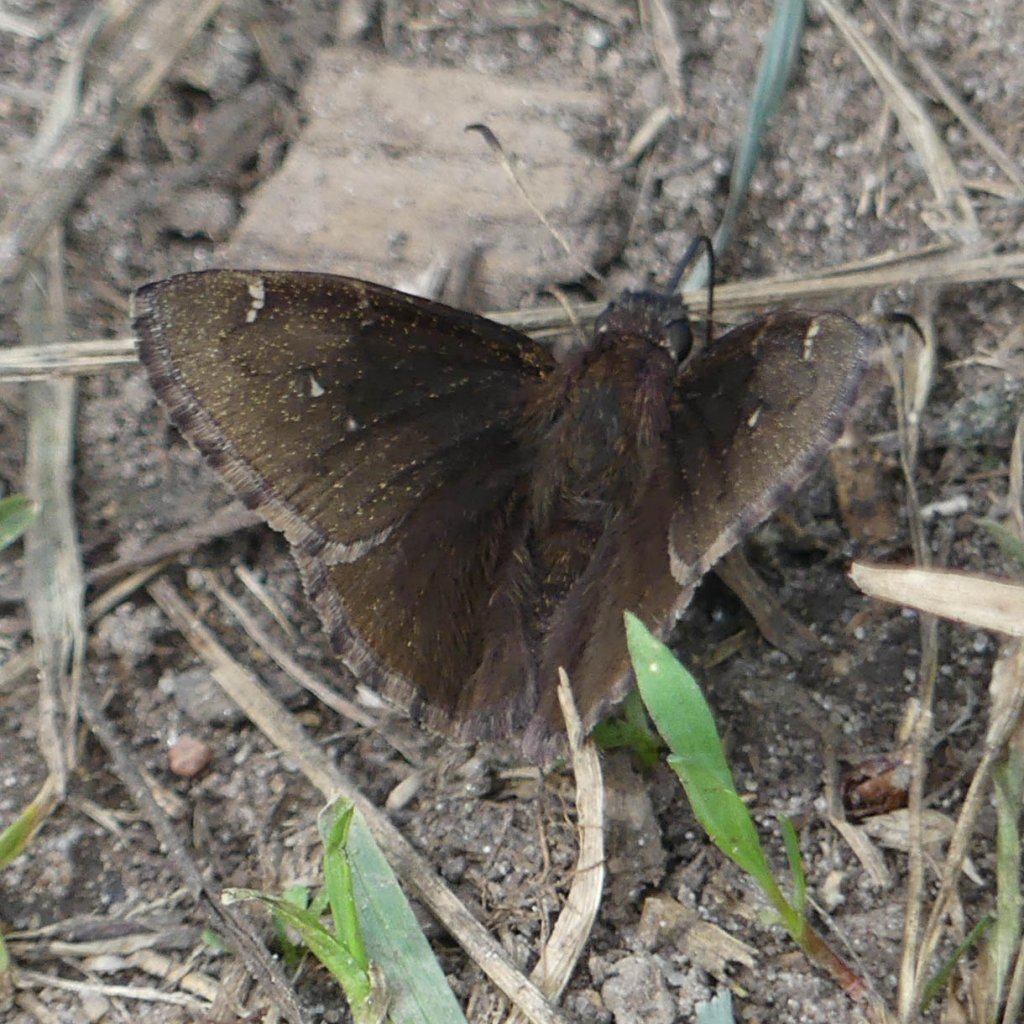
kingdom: Animalia
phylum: Arthropoda
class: Insecta
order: Lepidoptera
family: Hesperiidae
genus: Autochton
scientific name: Autochton
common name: Northern Cloudywing
